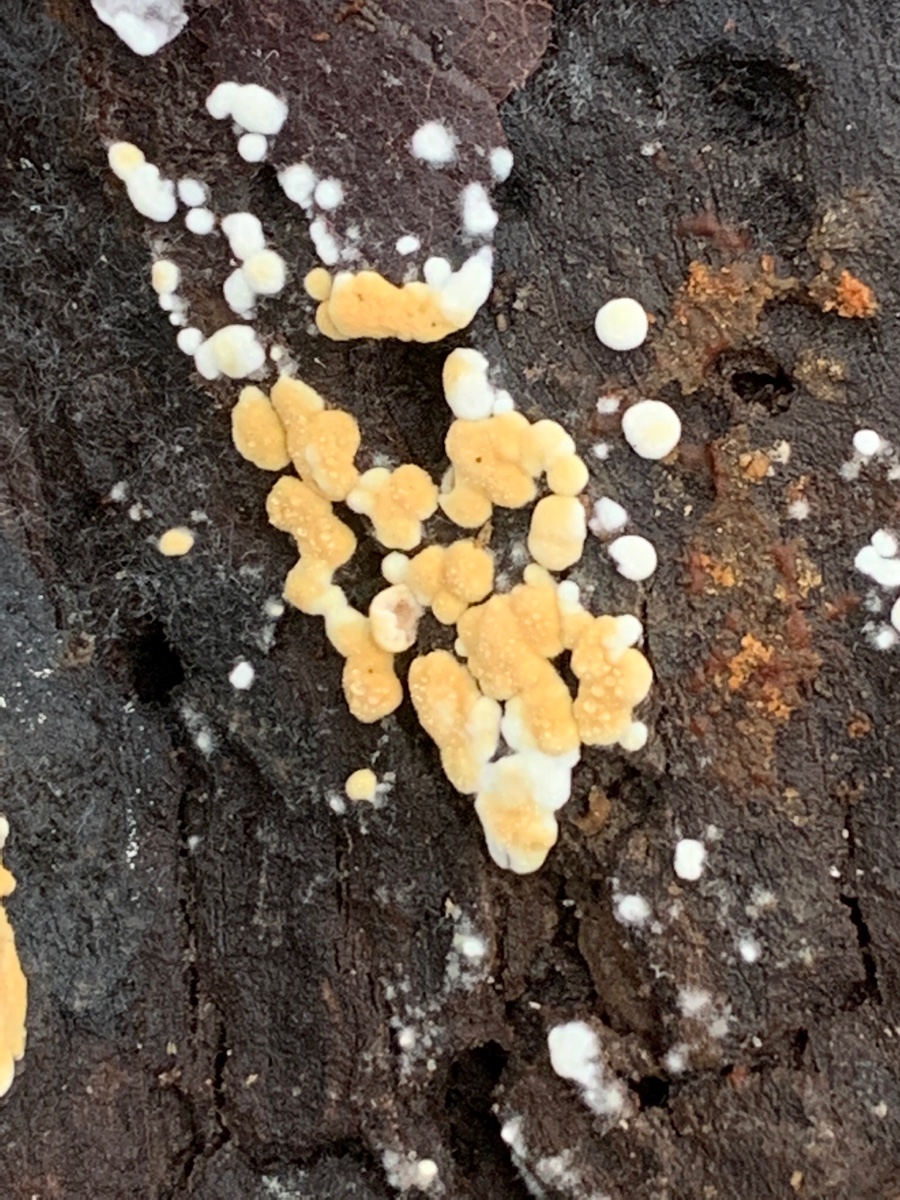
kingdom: Fungi
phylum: Basidiomycota
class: Agaricomycetes
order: Cantharellales
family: Botryobasidiaceae
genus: Botryobasidium
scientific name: Botryobasidium aureum
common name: gylden spindhinde
